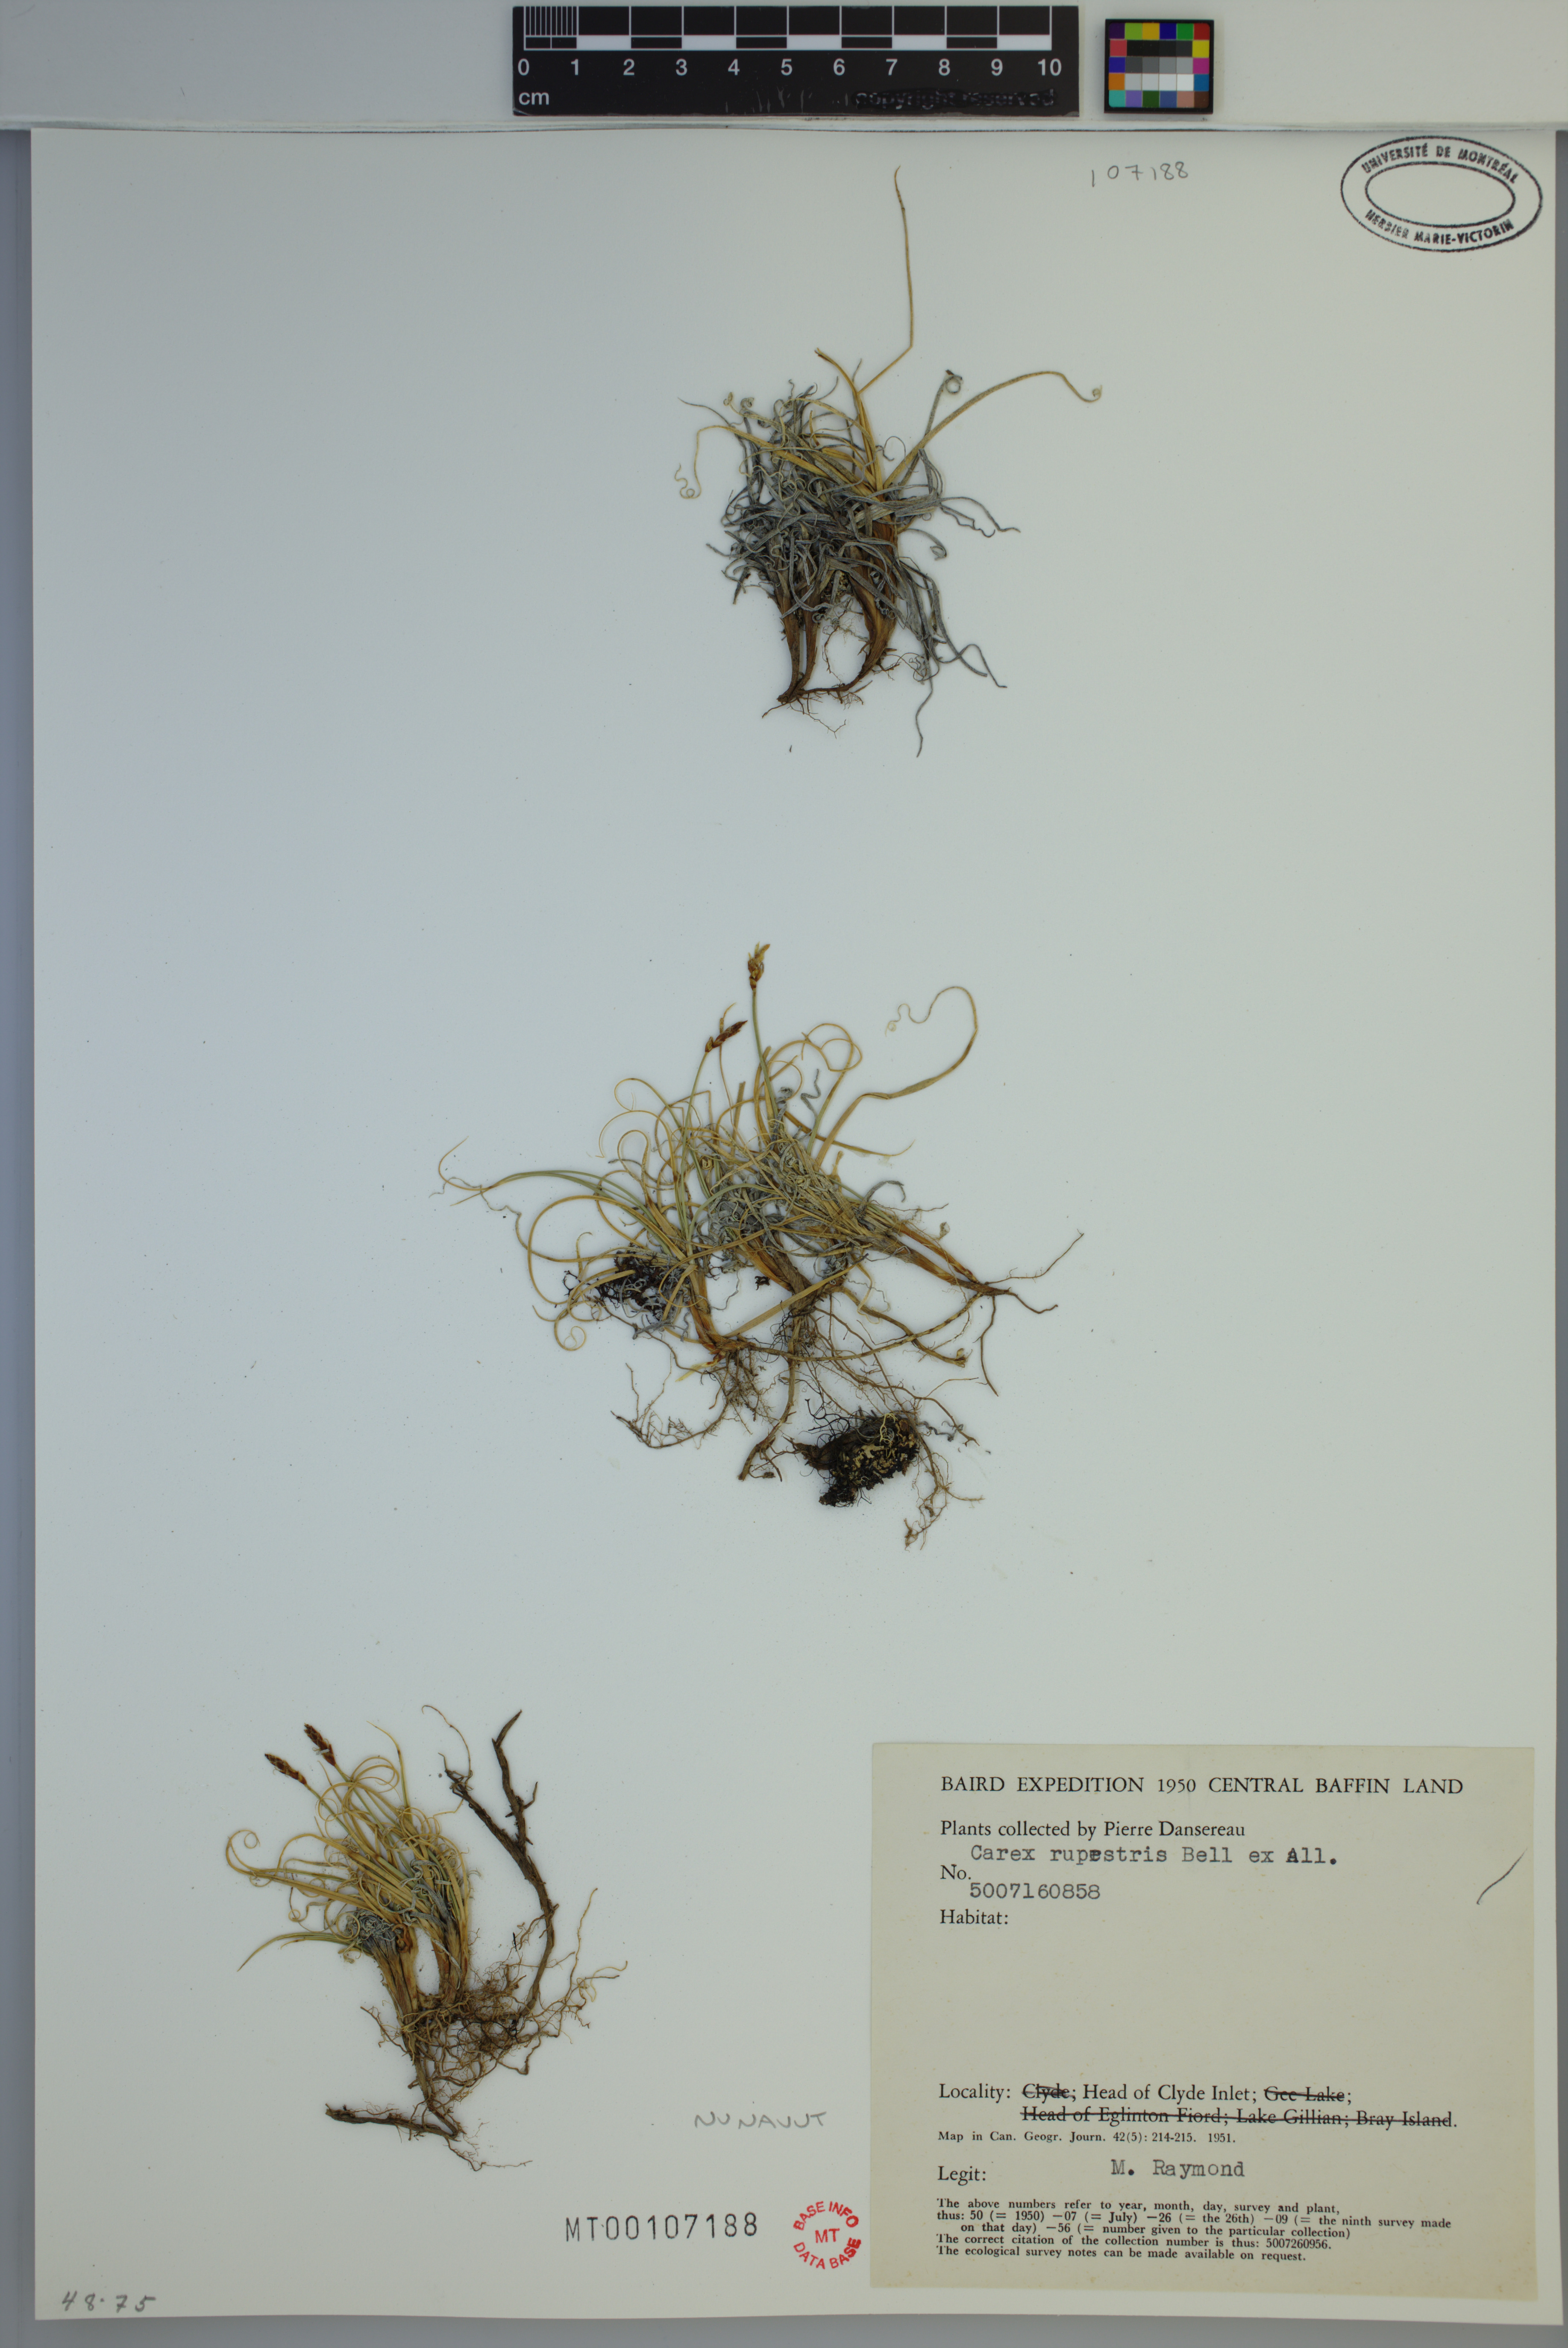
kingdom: Plantae
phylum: Tracheophyta
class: Liliopsida
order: Poales
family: Cyperaceae
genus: Carex
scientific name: Carex rupestris
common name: Rock sedge
